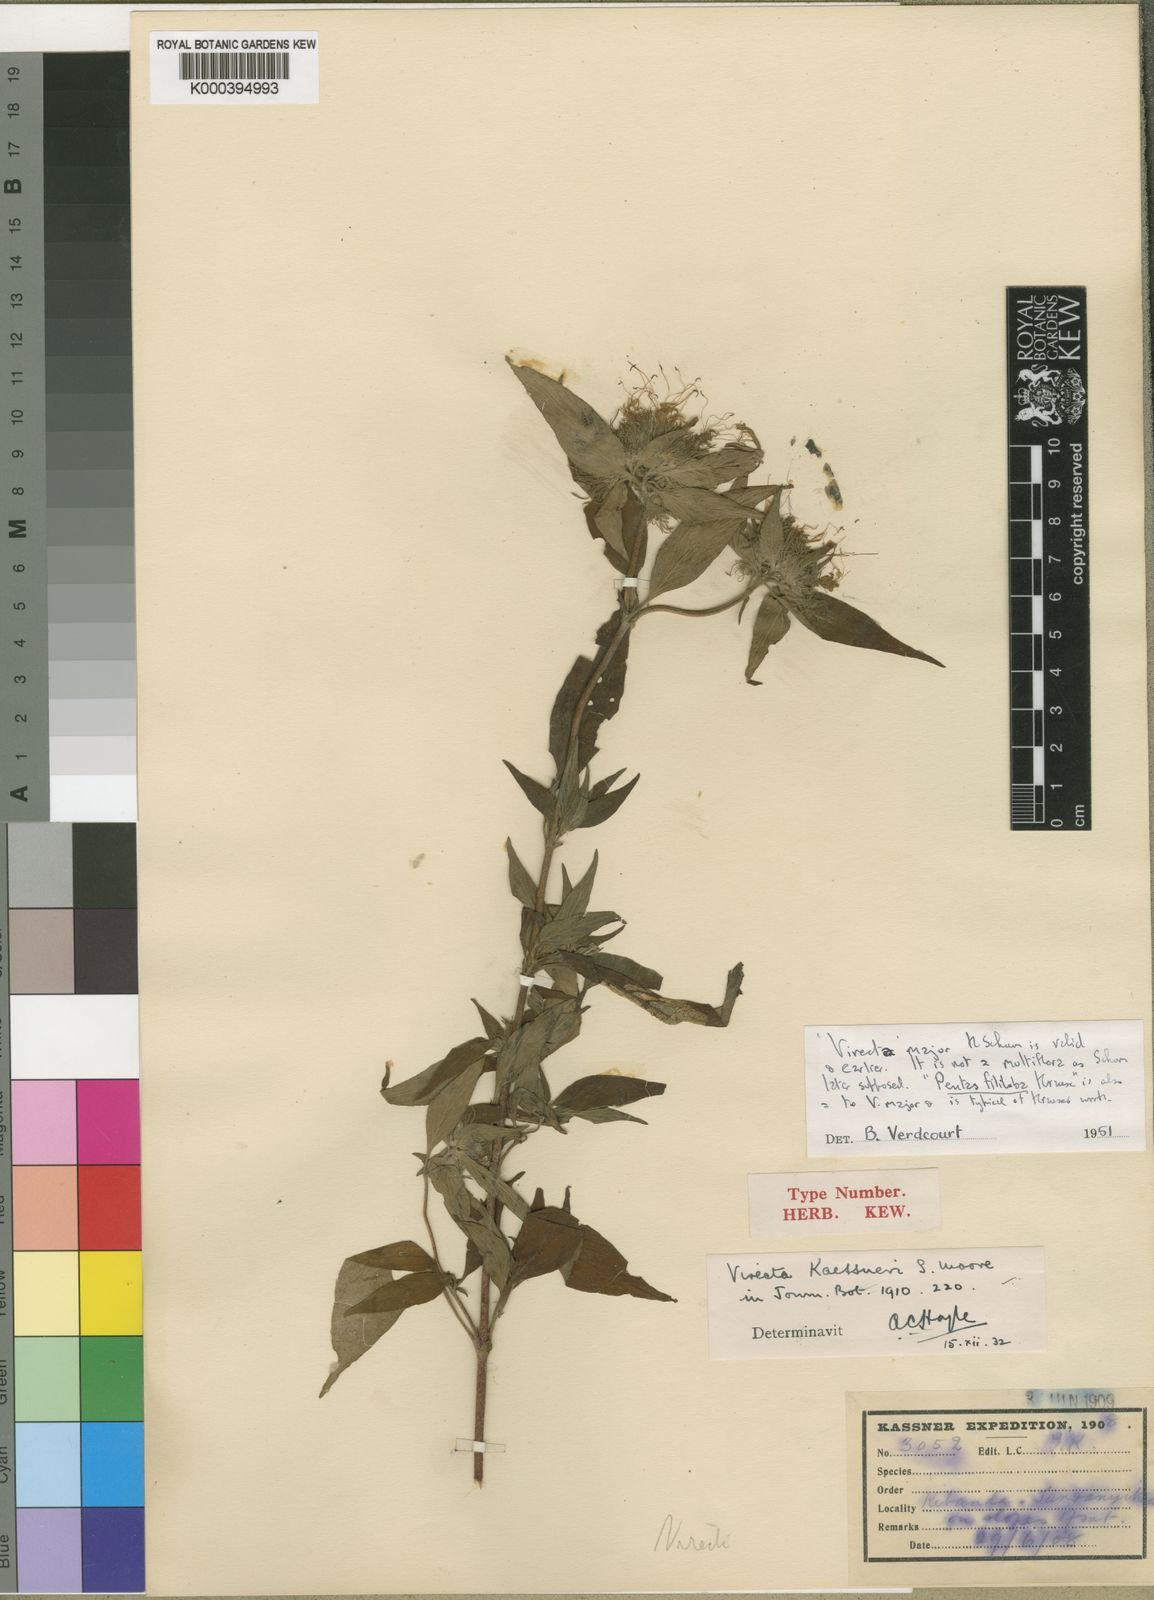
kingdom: Plantae
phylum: Tracheophyta
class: Magnoliopsida
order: Gentianales
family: Rubiaceae
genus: Virectaria
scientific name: Virectaria major
